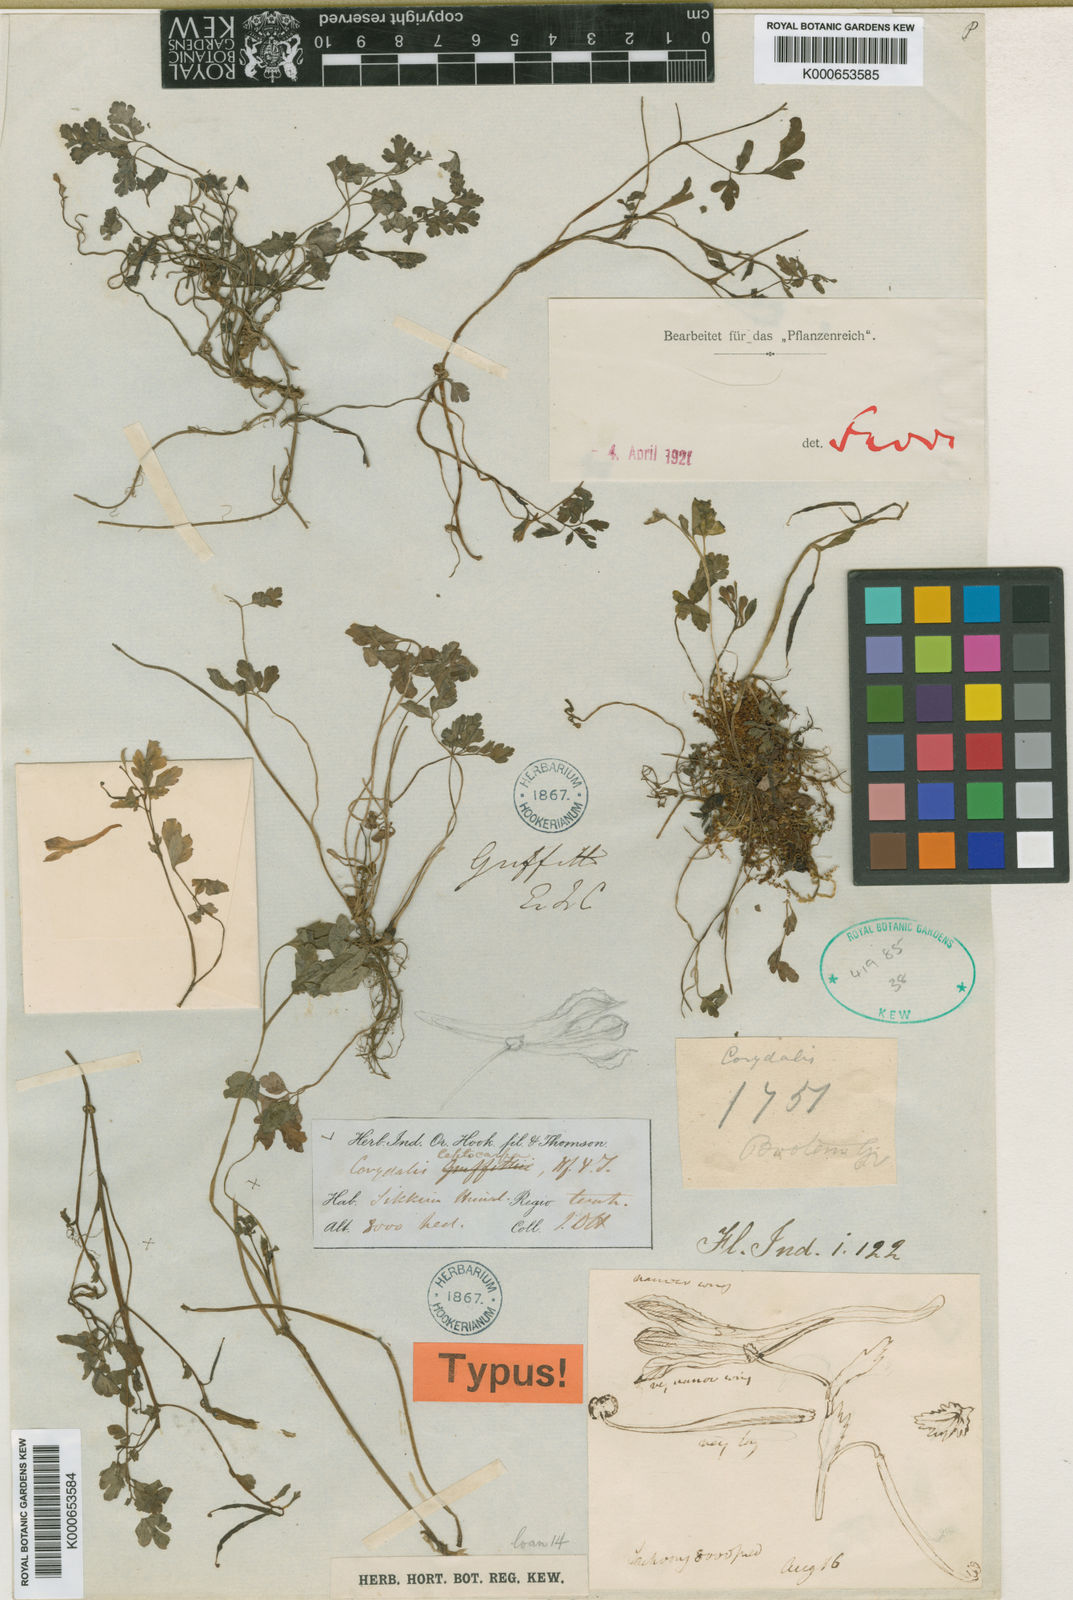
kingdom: Plantae
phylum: Tracheophyta
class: Magnoliopsida
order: Ranunculales
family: Papaveraceae
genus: Corydalis
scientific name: Corydalis leptocarpa
